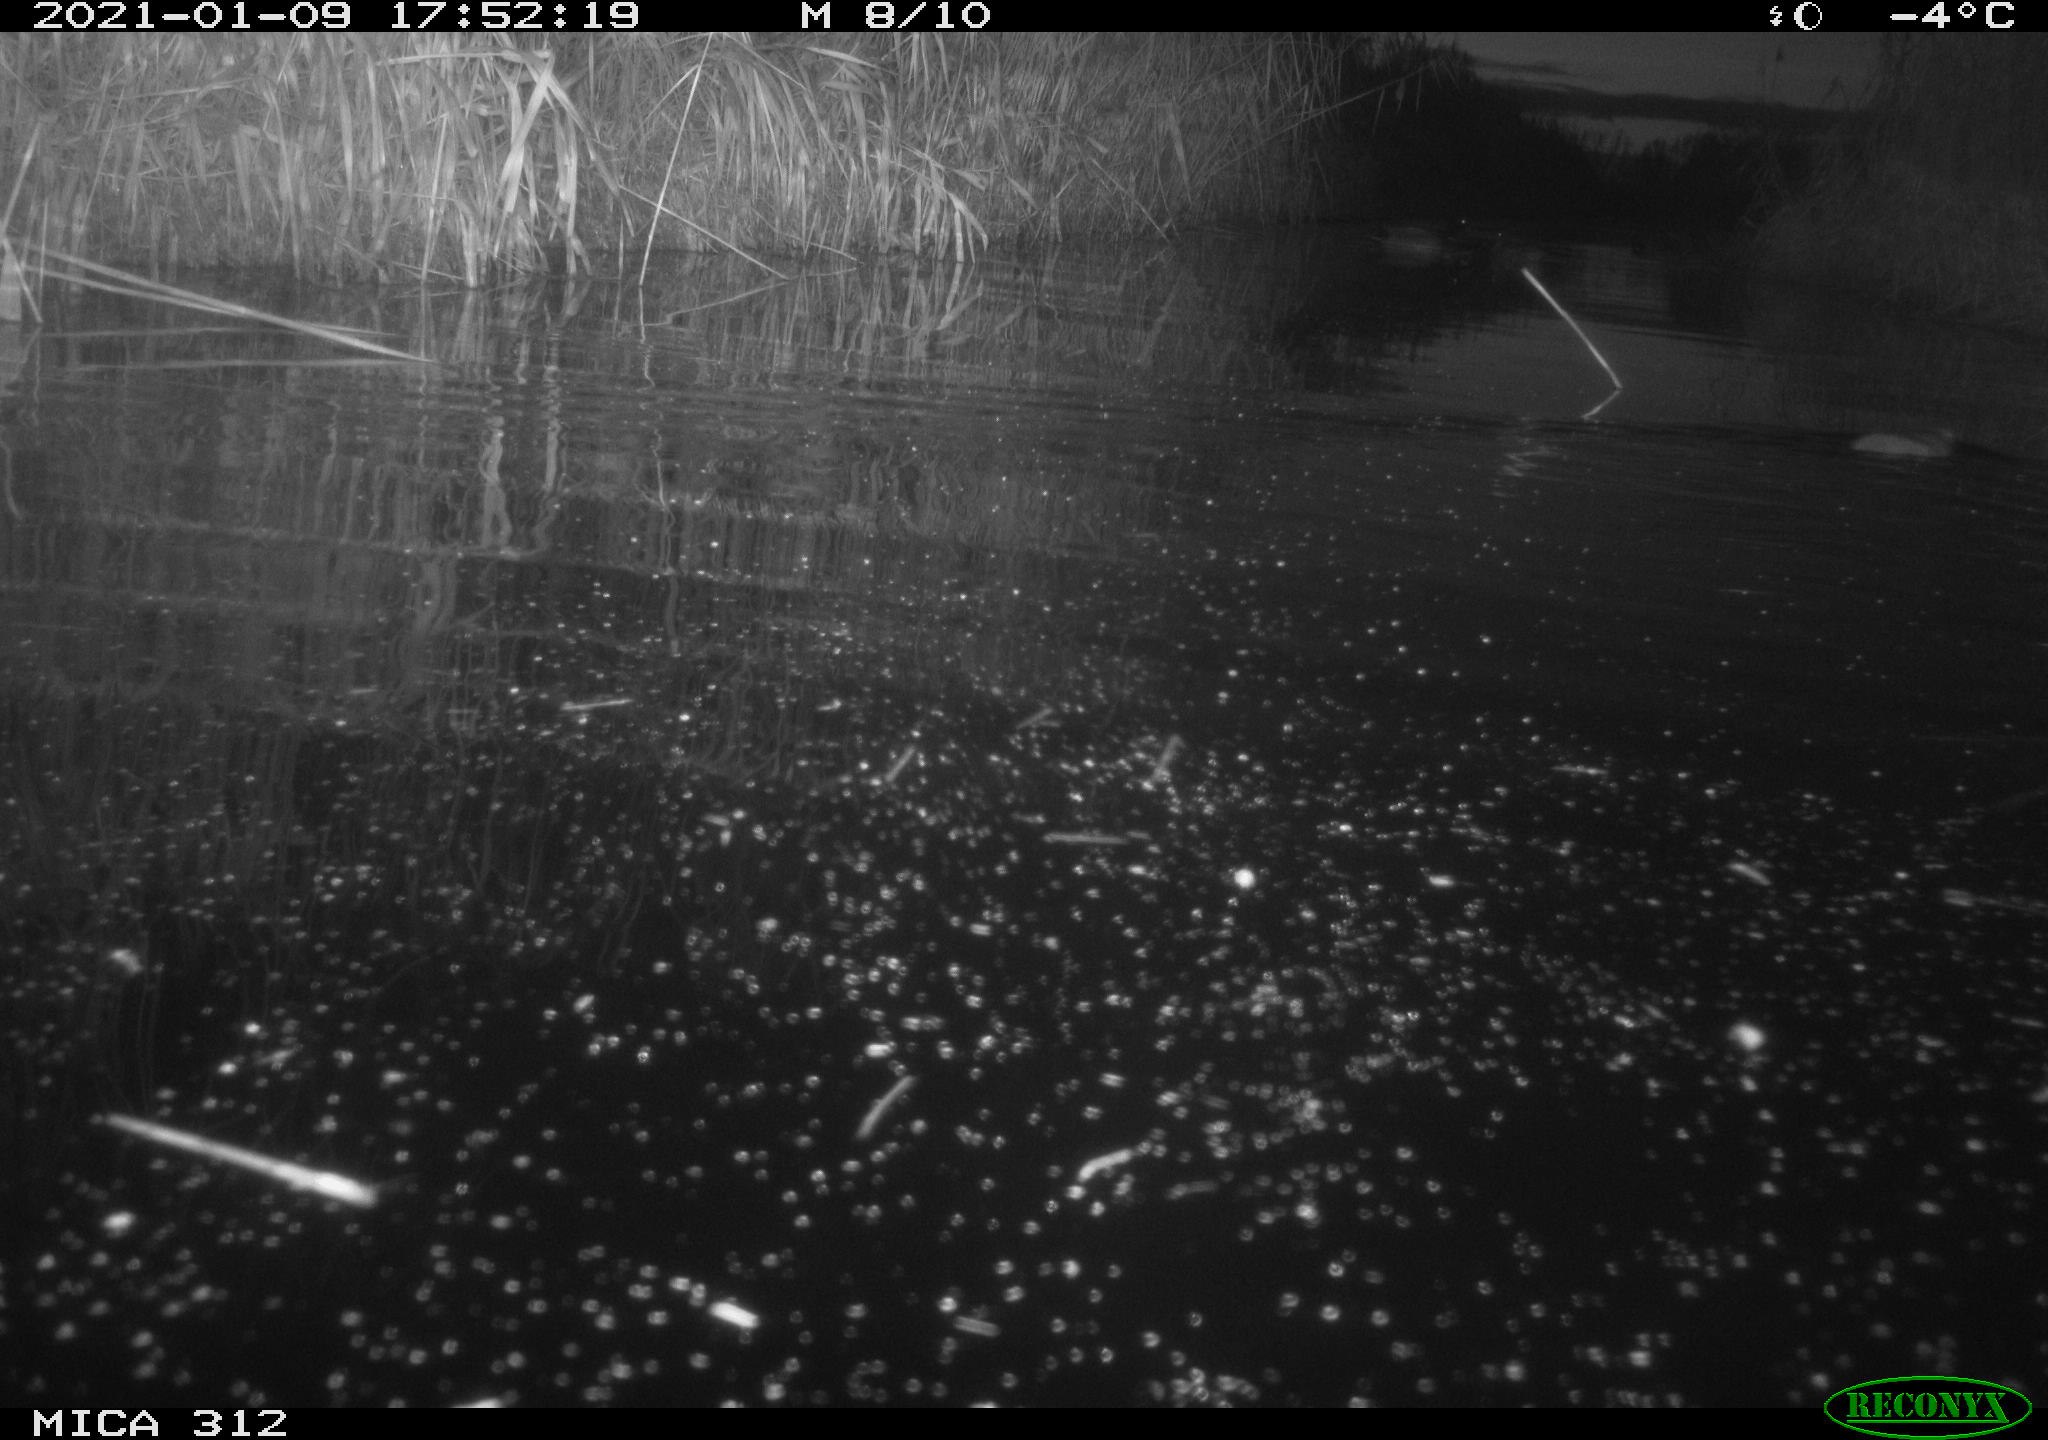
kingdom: Animalia
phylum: Chordata
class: Mammalia
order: Rodentia
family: Muridae
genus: Rattus
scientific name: Rattus norvegicus
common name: Brown rat
